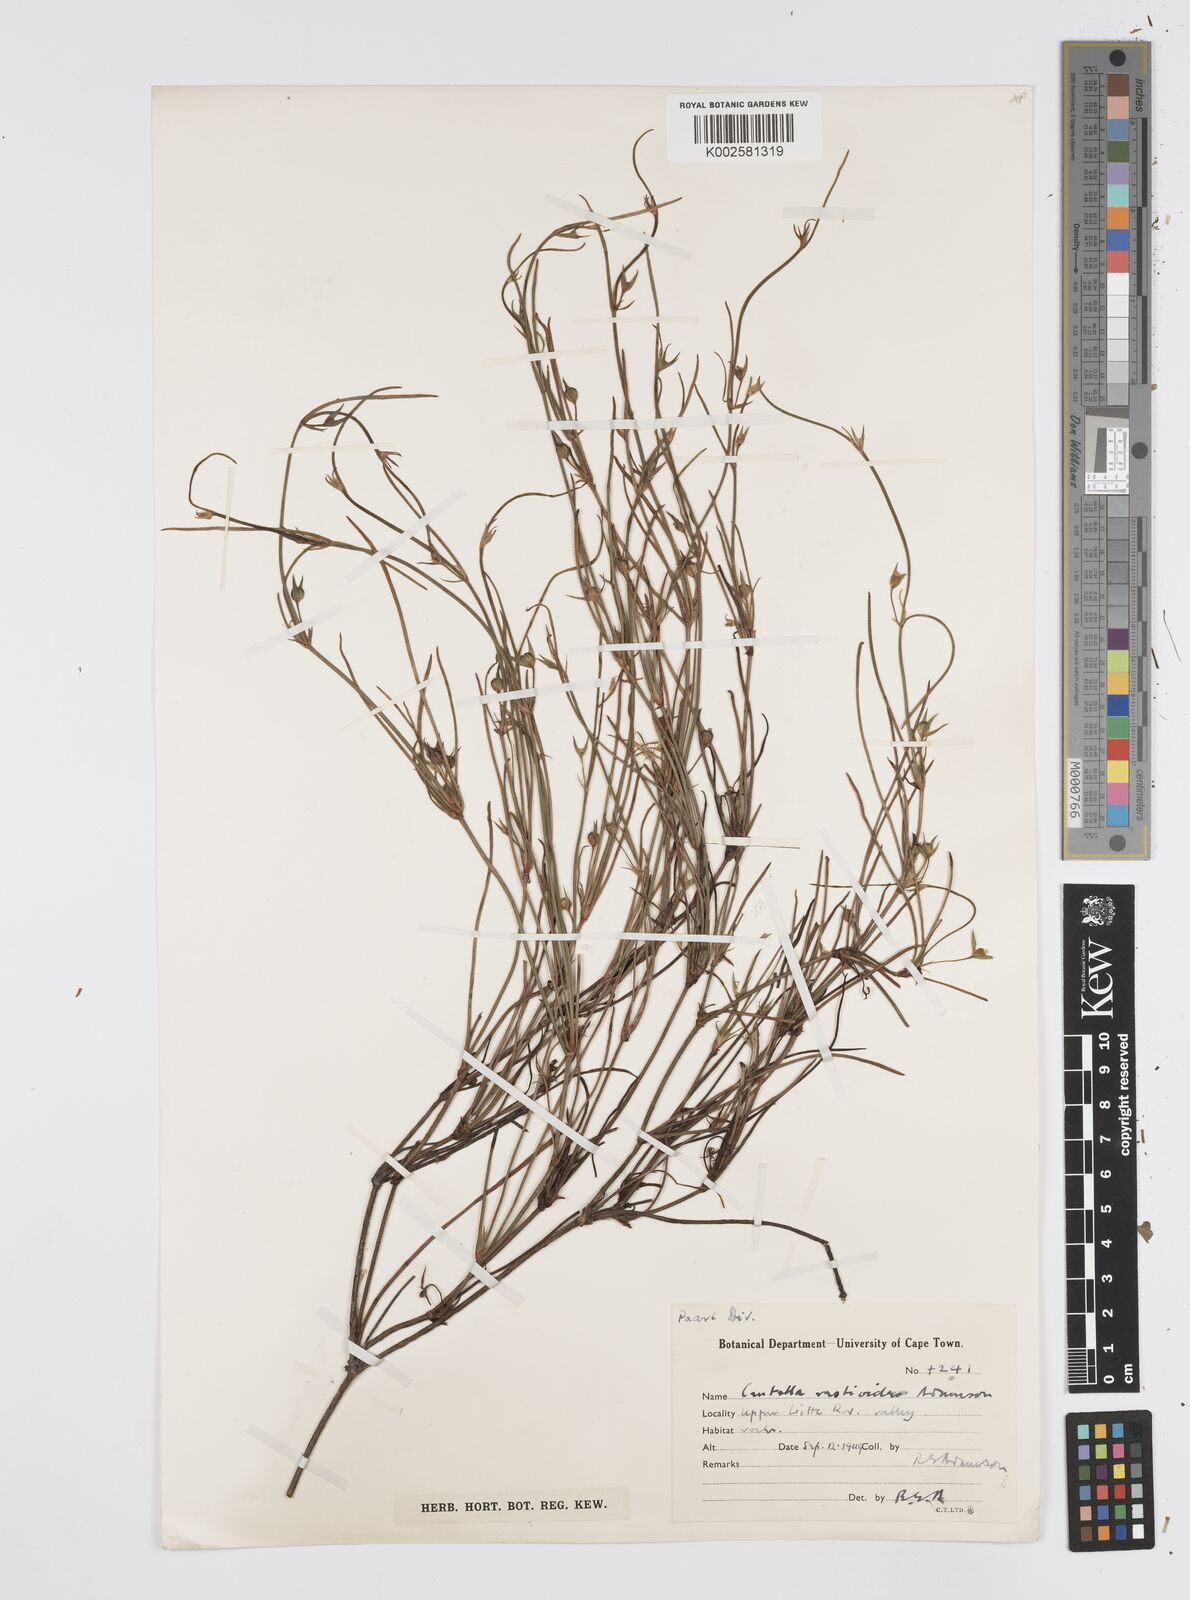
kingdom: Plantae
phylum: Tracheophyta
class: Magnoliopsida
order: Apiales
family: Apiaceae
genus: Centella
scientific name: Centella restioides
